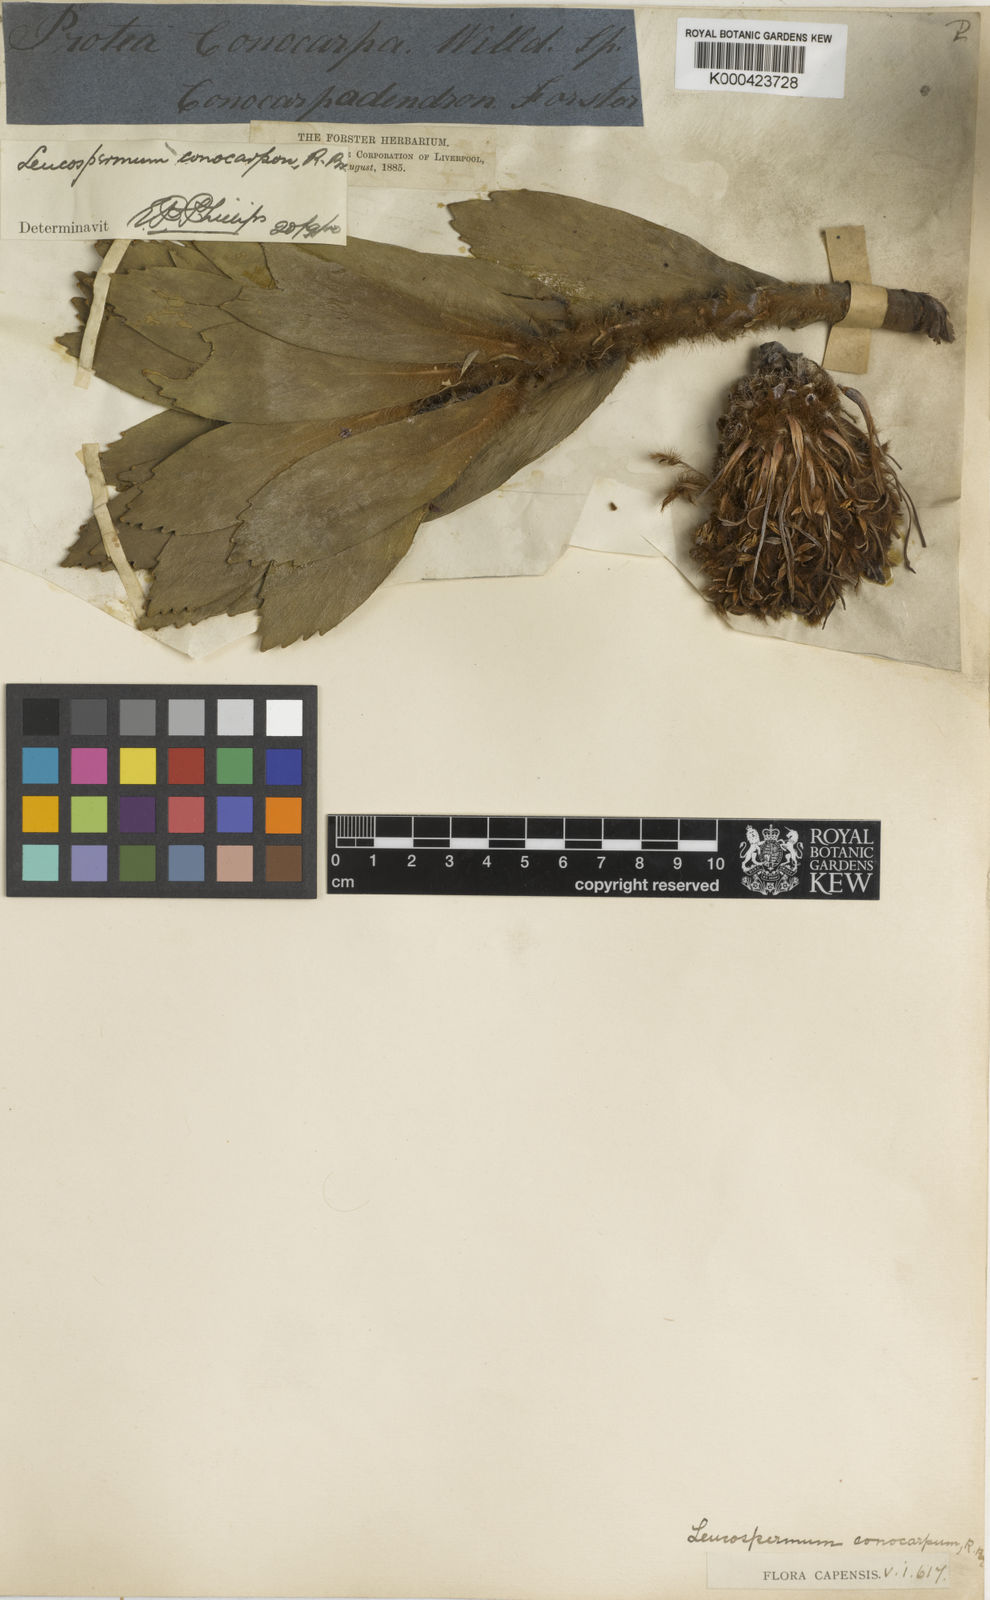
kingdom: Plantae
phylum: Tracheophyta
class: Magnoliopsida
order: Proteales
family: Proteaceae
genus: Leucospermum
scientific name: Leucospermum conocarpodendron
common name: Tree pincushion
